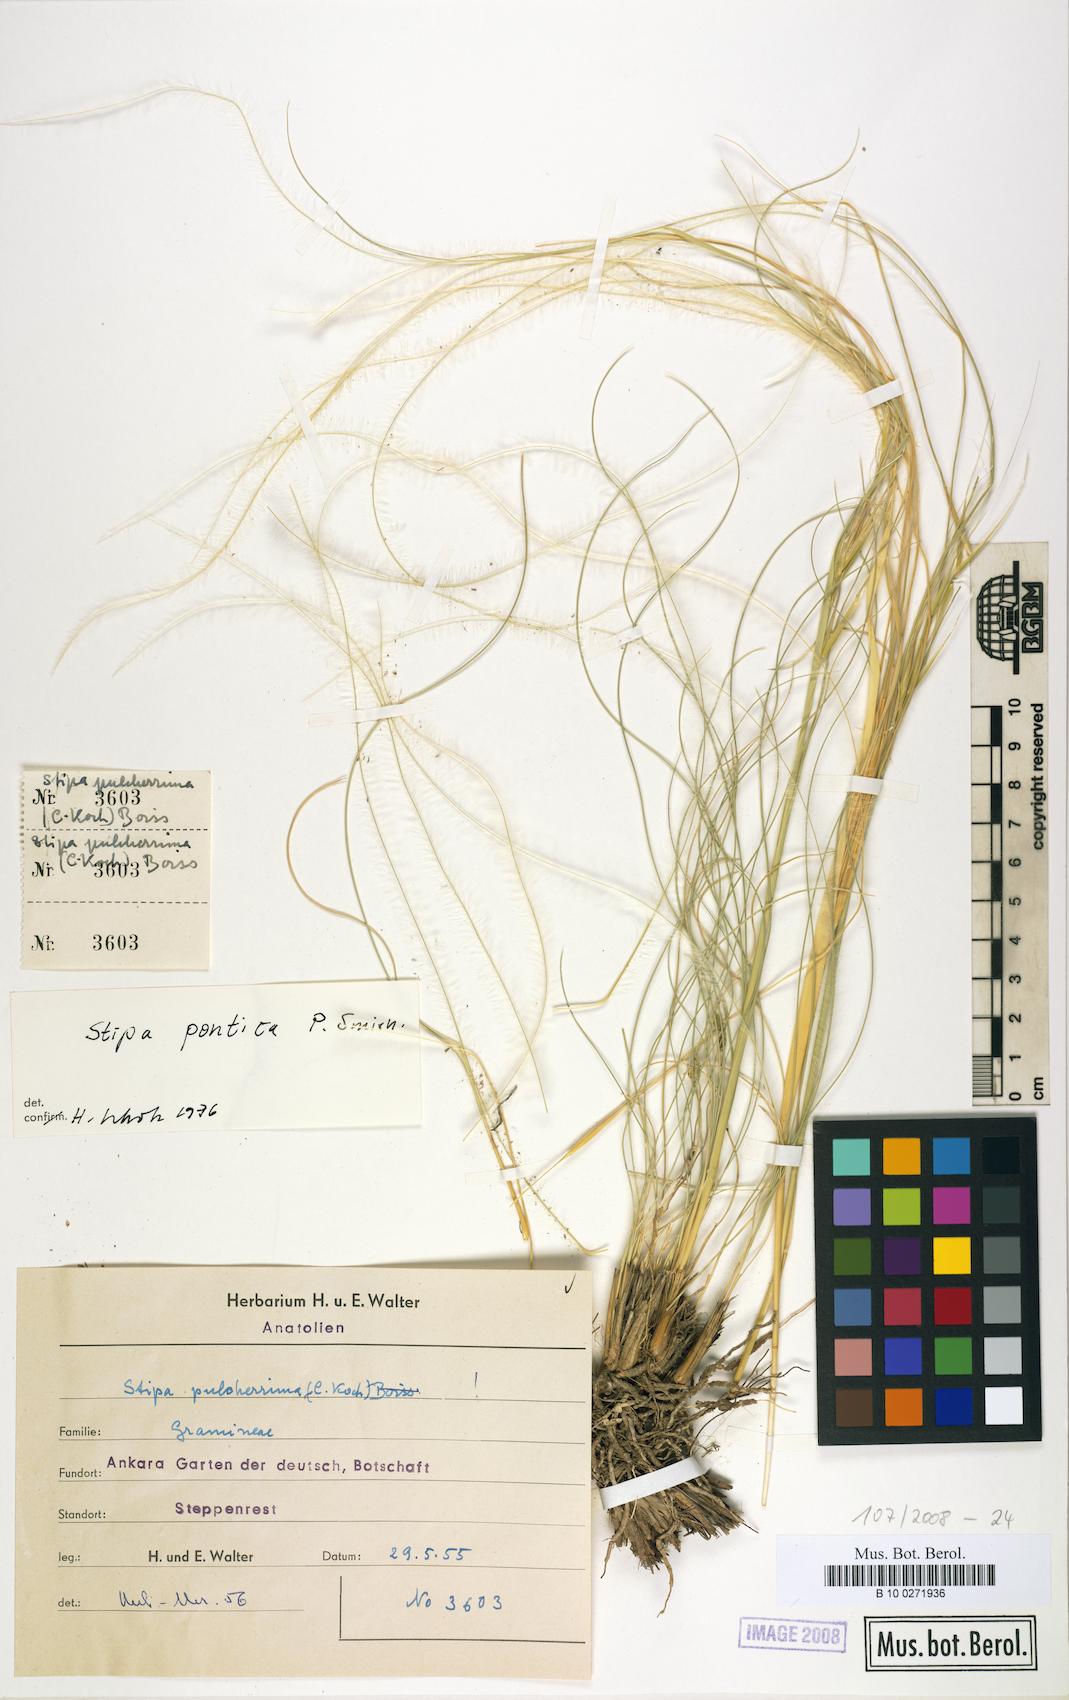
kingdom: Plantae
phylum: Tracheophyta
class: Liliopsida
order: Poales
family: Poaceae
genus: Stipa
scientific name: Stipa pontica
